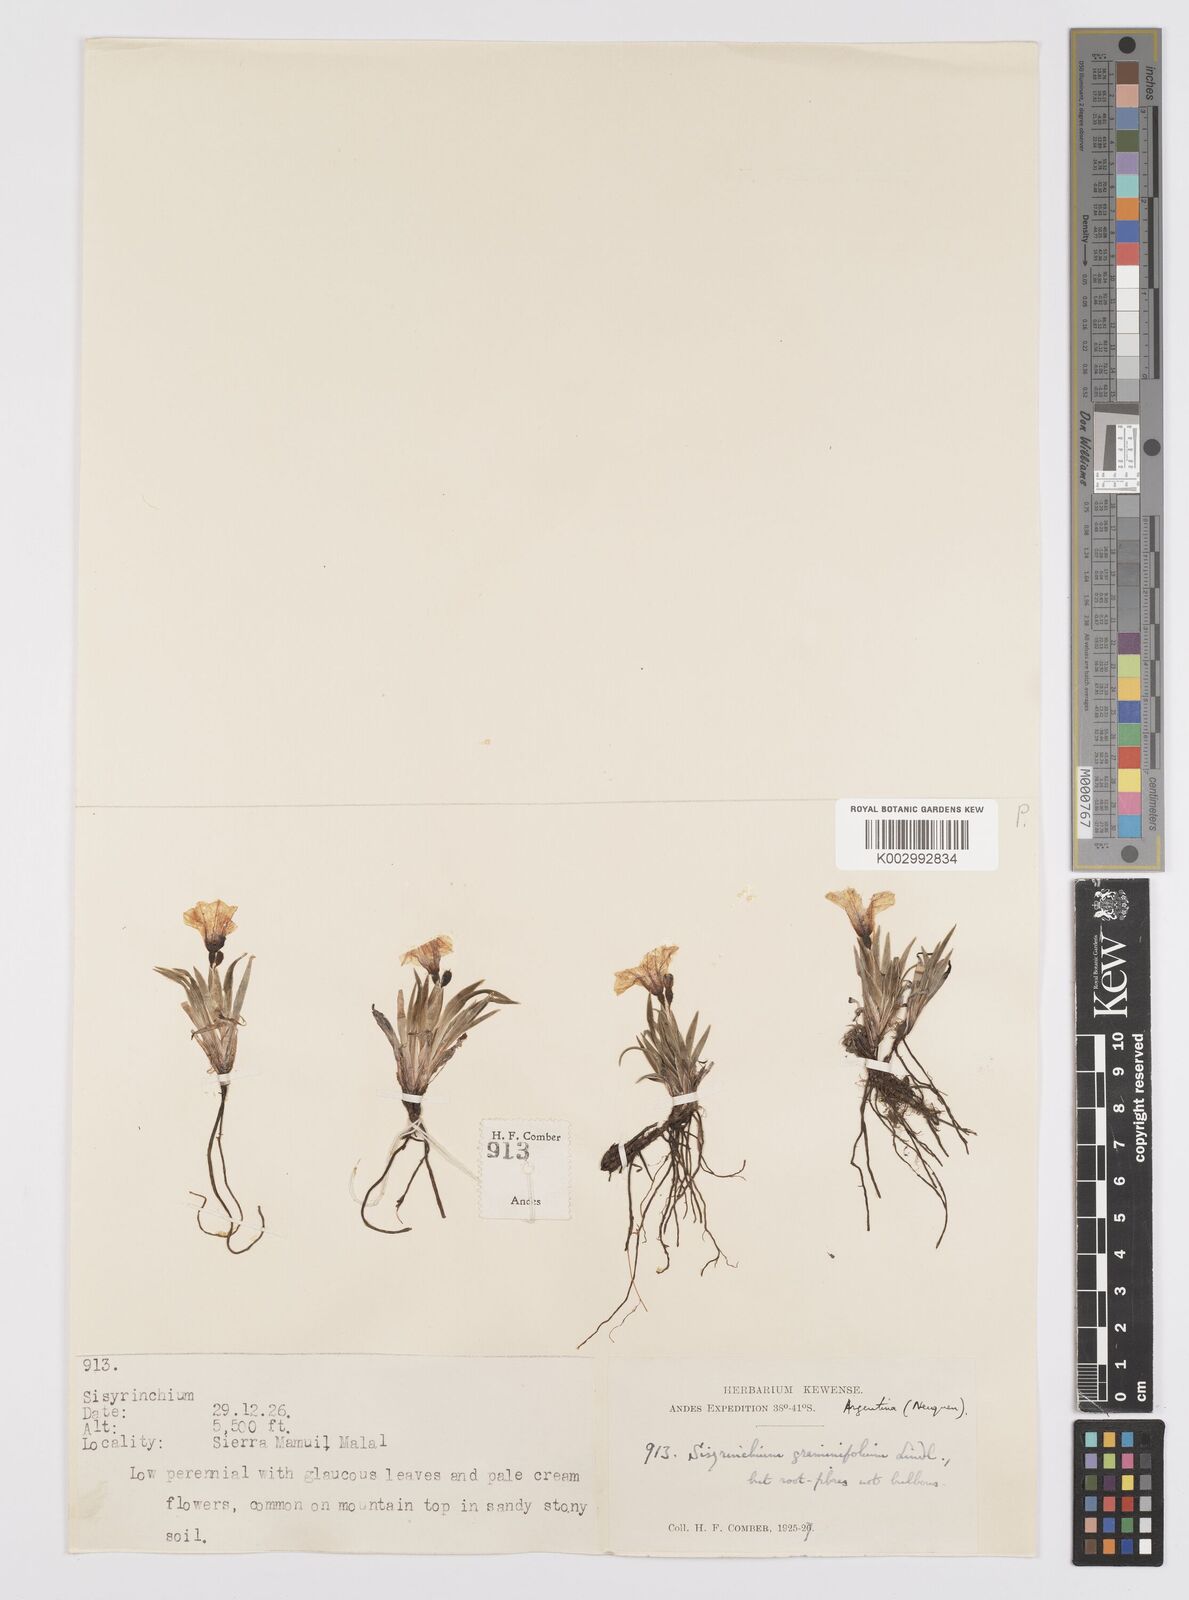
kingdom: Plantae
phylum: Tracheophyta
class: Liliopsida
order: Asparagales
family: Iridaceae
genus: Sisyrinchium
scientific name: Sisyrinchium graminifolium
